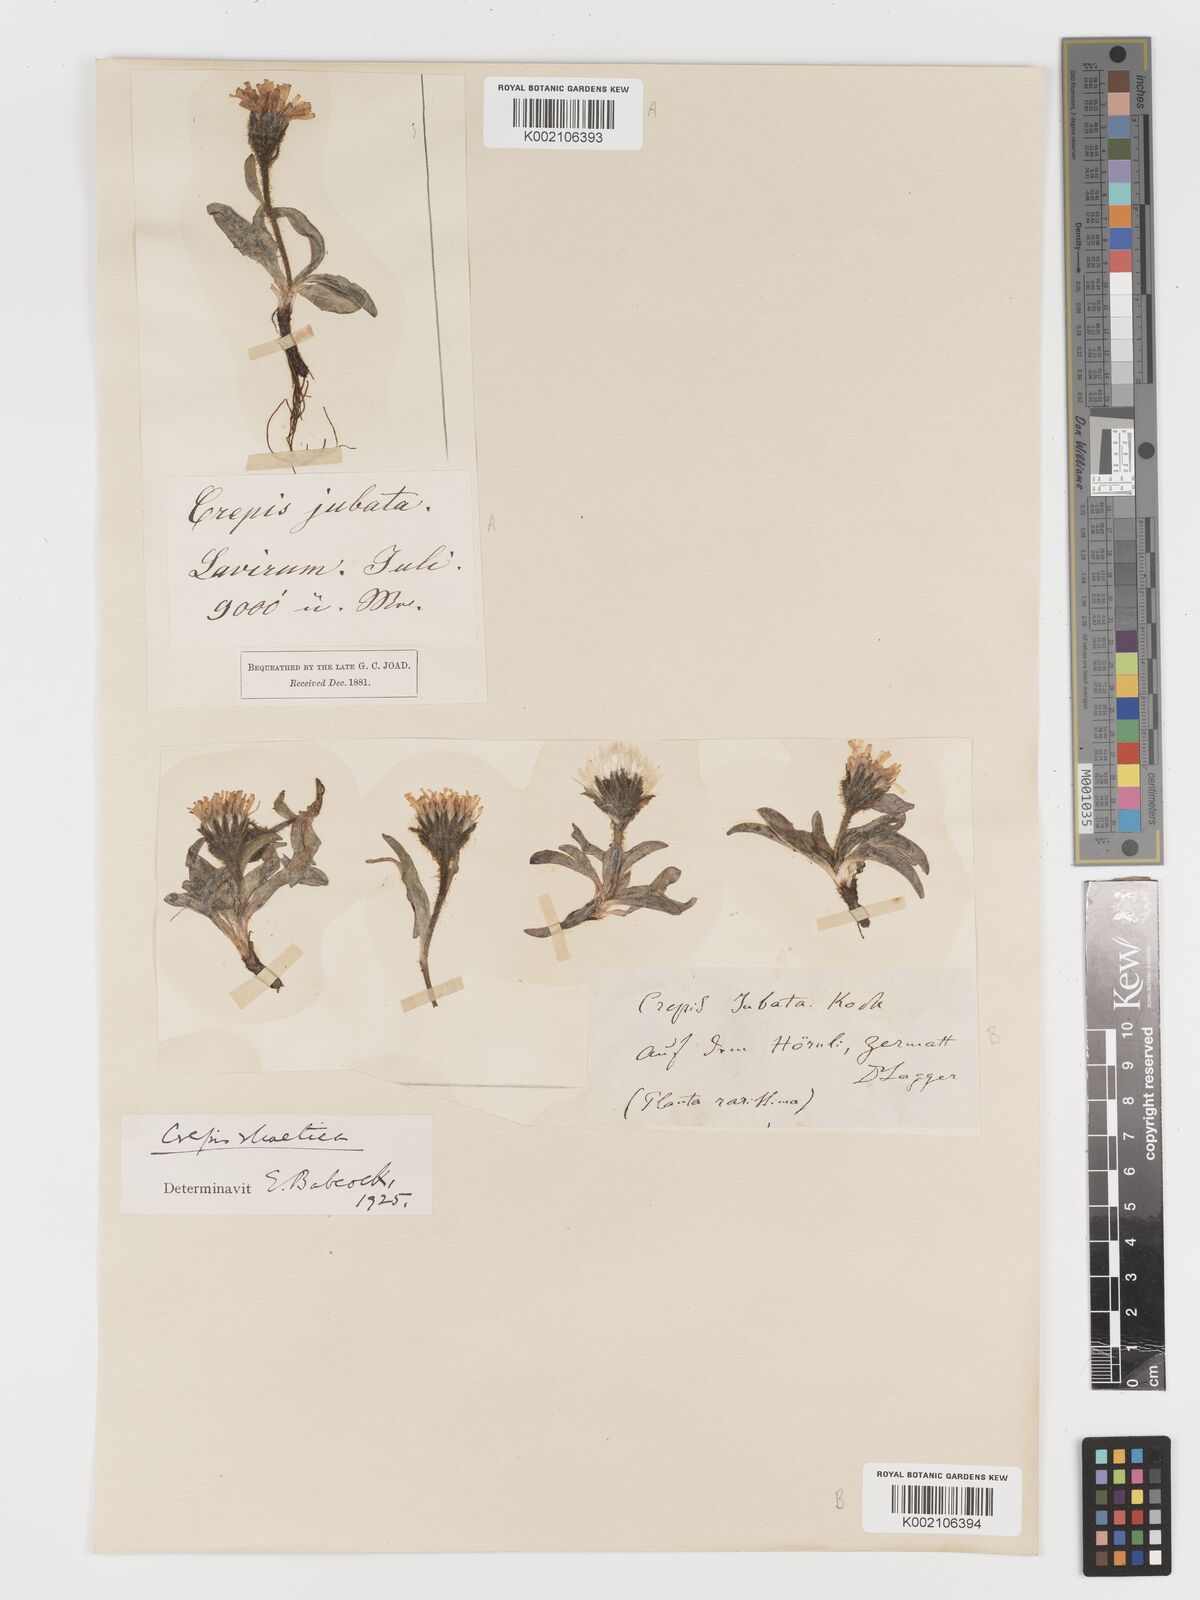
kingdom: Plantae
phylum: Tracheophyta
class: Magnoliopsida
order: Asterales
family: Asteraceae
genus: Crepis
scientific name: Crepis rhaetica
